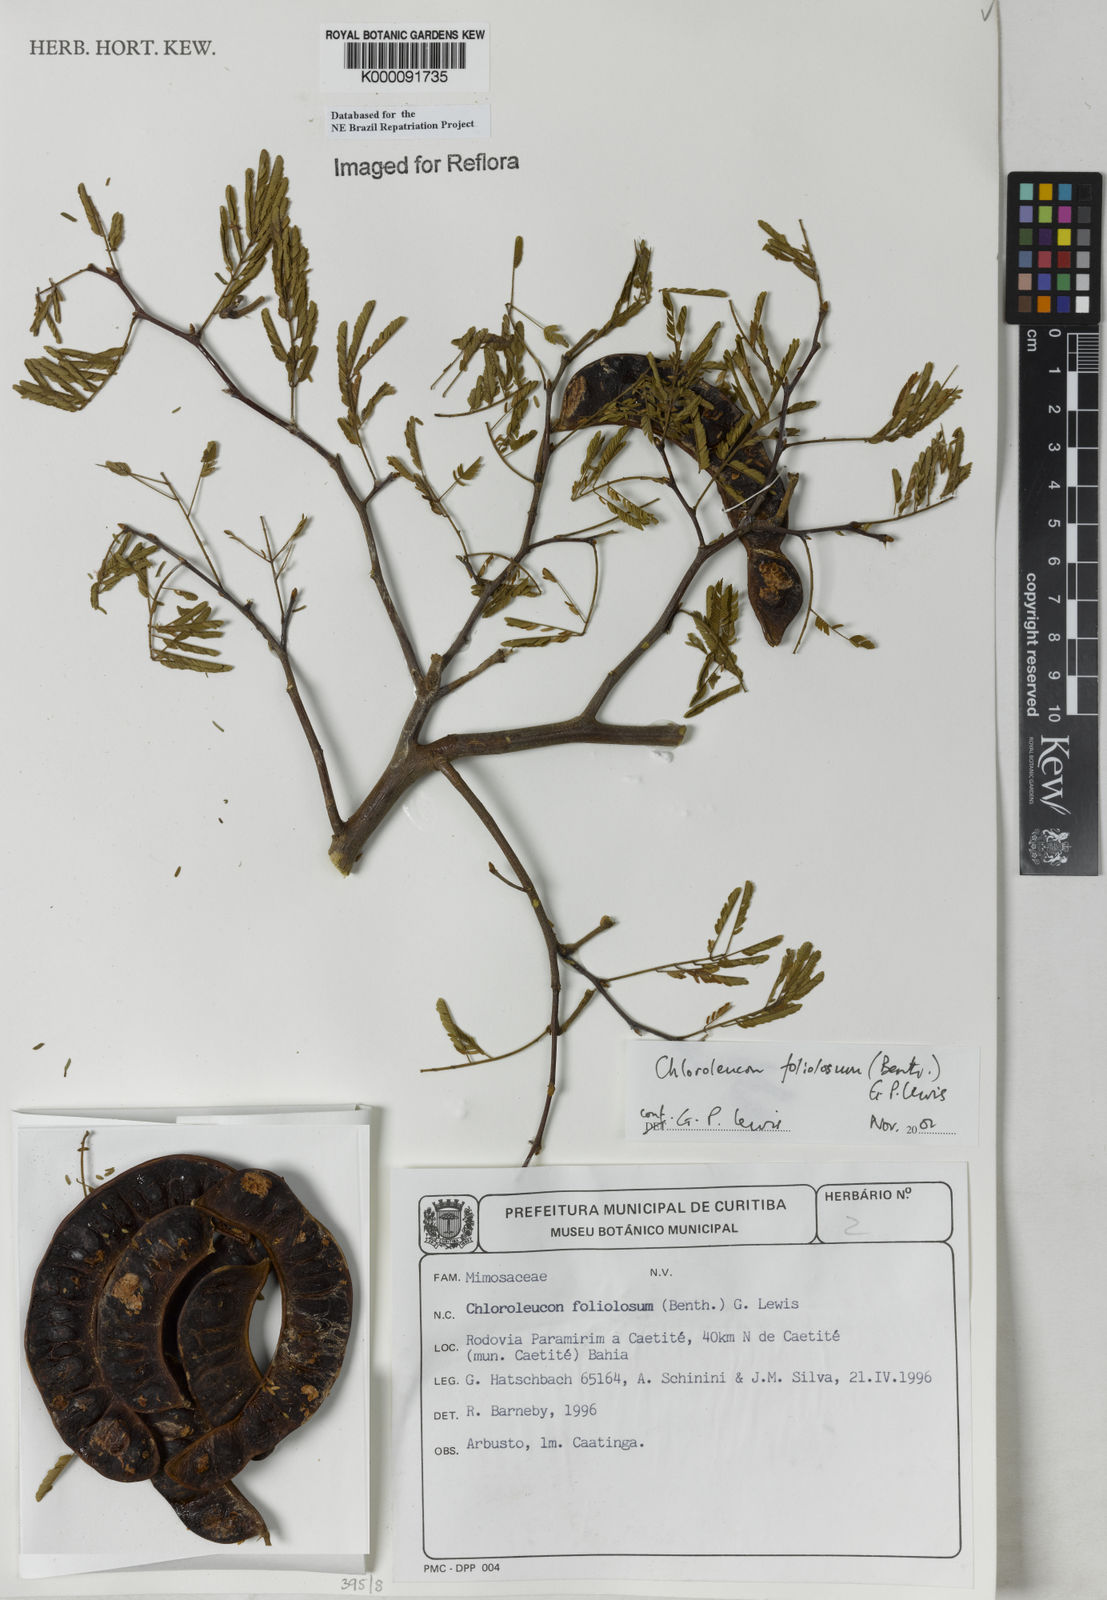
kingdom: Plantae
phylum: Tracheophyta
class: Magnoliopsida
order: Fabales
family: Fabaceae
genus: Chloroleucon
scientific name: Chloroleucon foliolosum
